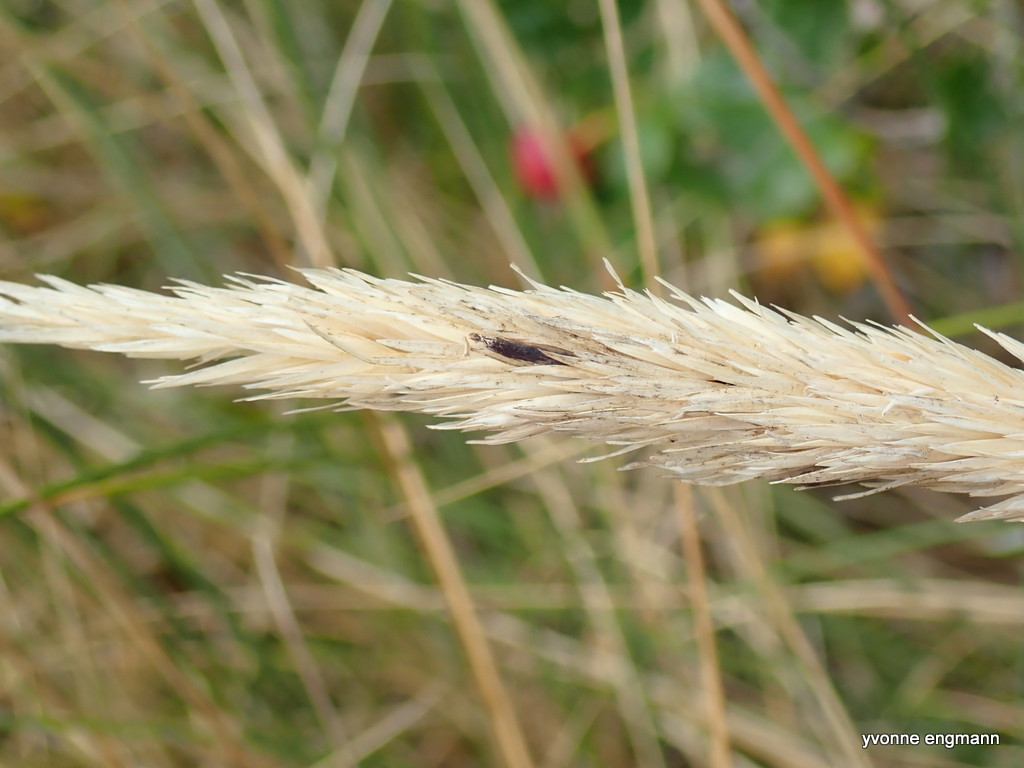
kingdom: Fungi
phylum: Ascomycota
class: Sordariomycetes
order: Hypocreales
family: Clavicipitaceae
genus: Claviceps
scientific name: Claviceps
